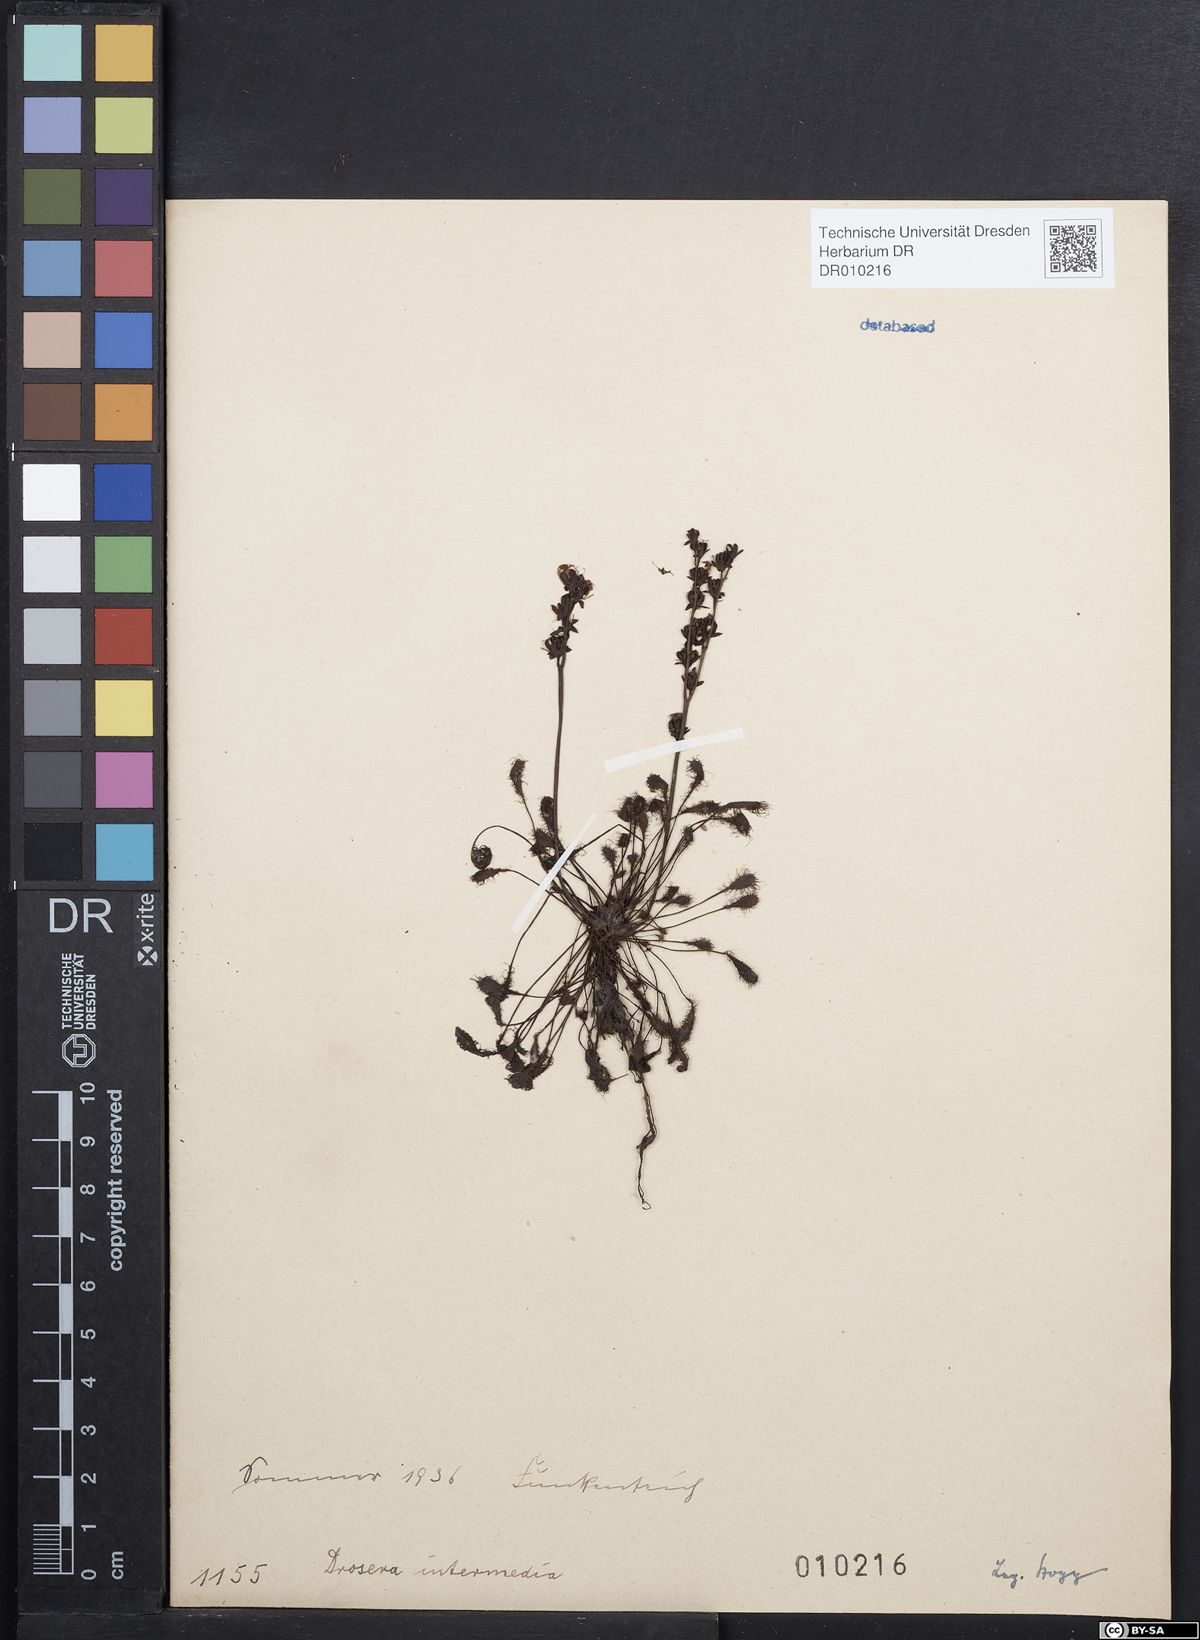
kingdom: Plantae
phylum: Tracheophyta
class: Magnoliopsida
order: Caryophyllales
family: Droseraceae
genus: Drosera
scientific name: Drosera intermedia
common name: Oblong-leaved sundew
